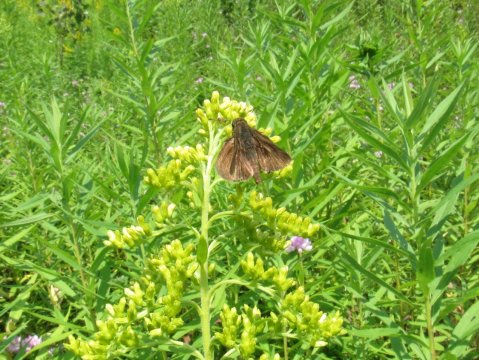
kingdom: Animalia
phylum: Arthropoda
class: Insecta
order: Lepidoptera
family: Hesperiidae
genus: Euphyes
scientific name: Euphyes vestris
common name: Dun Skipper
